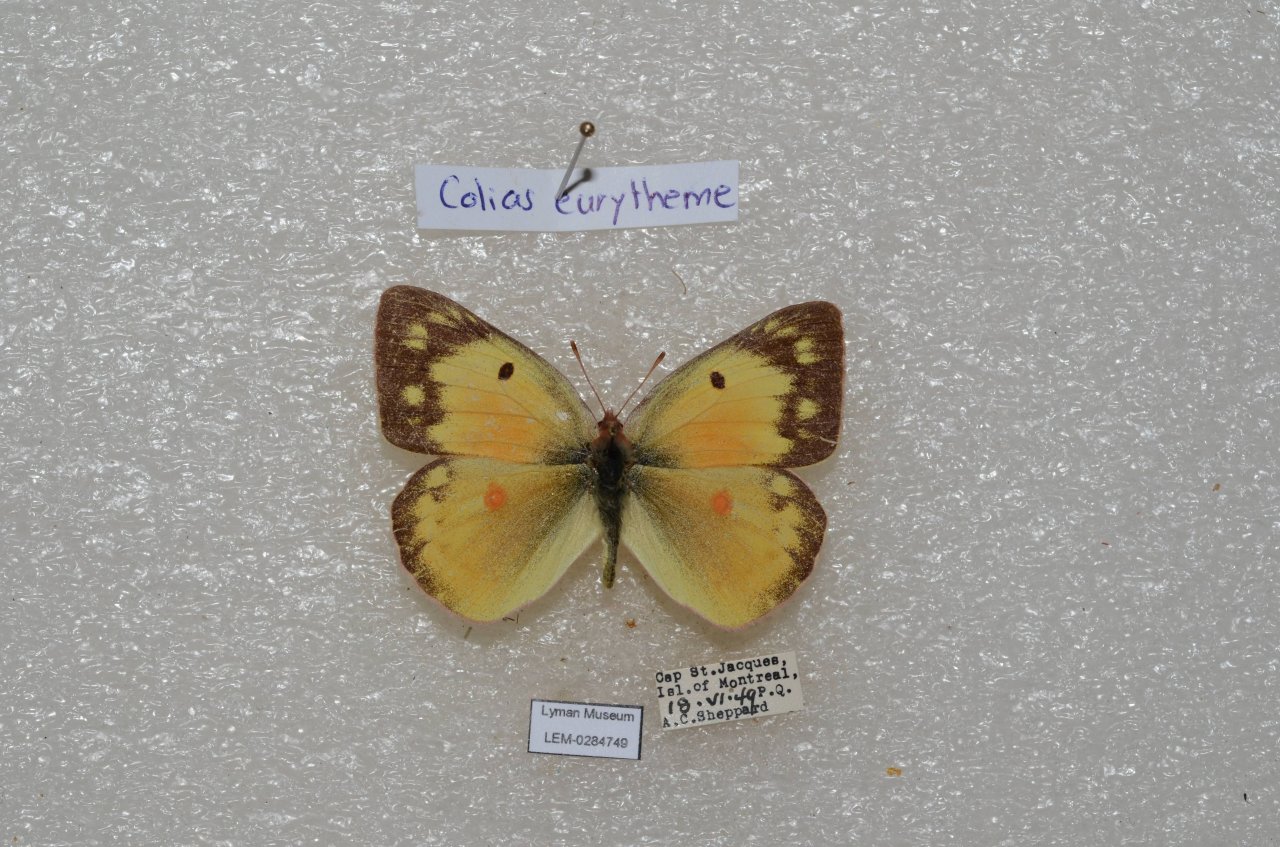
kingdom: Animalia
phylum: Arthropoda
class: Insecta
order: Lepidoptera
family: Pieridae
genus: Colias
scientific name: Colias eurytheme
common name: Orange Sulphur
